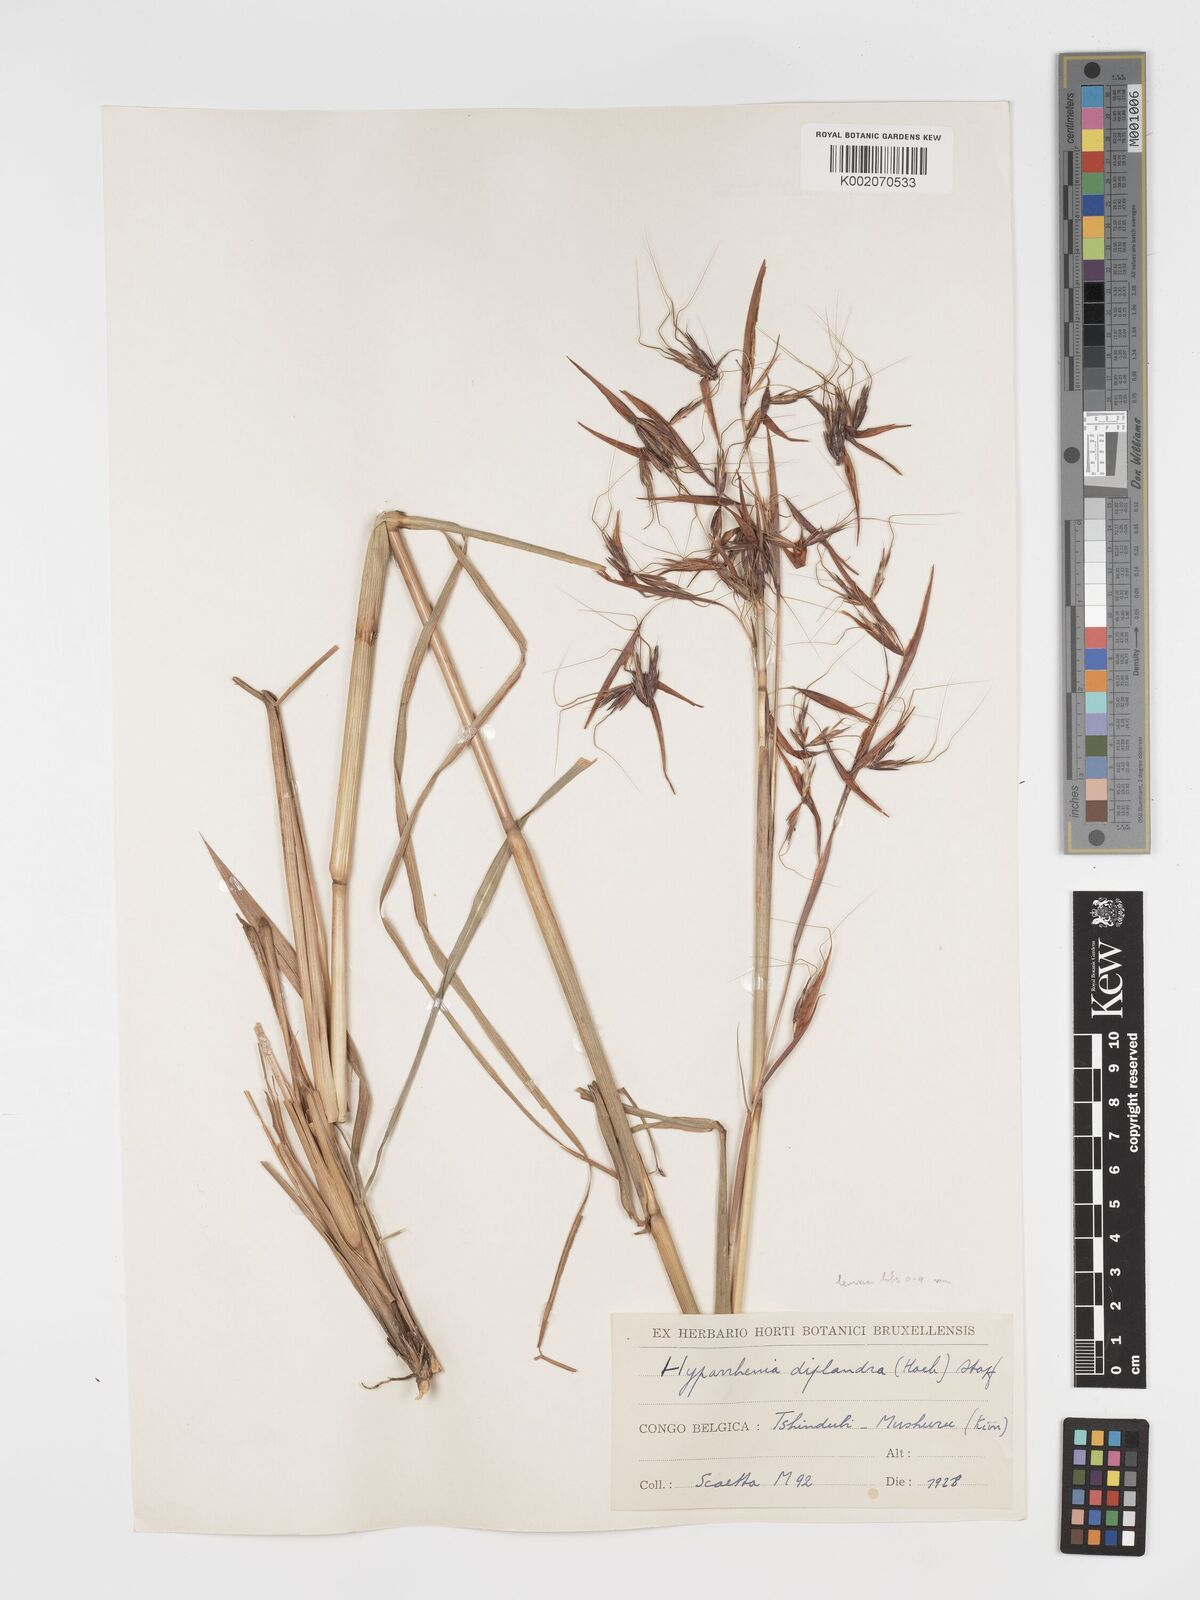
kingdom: Plantae
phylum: Tracheophyta
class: Liliopsida
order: Poales
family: Poaceae
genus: Hyparrhenia
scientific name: Hyparrhenia diplandra
